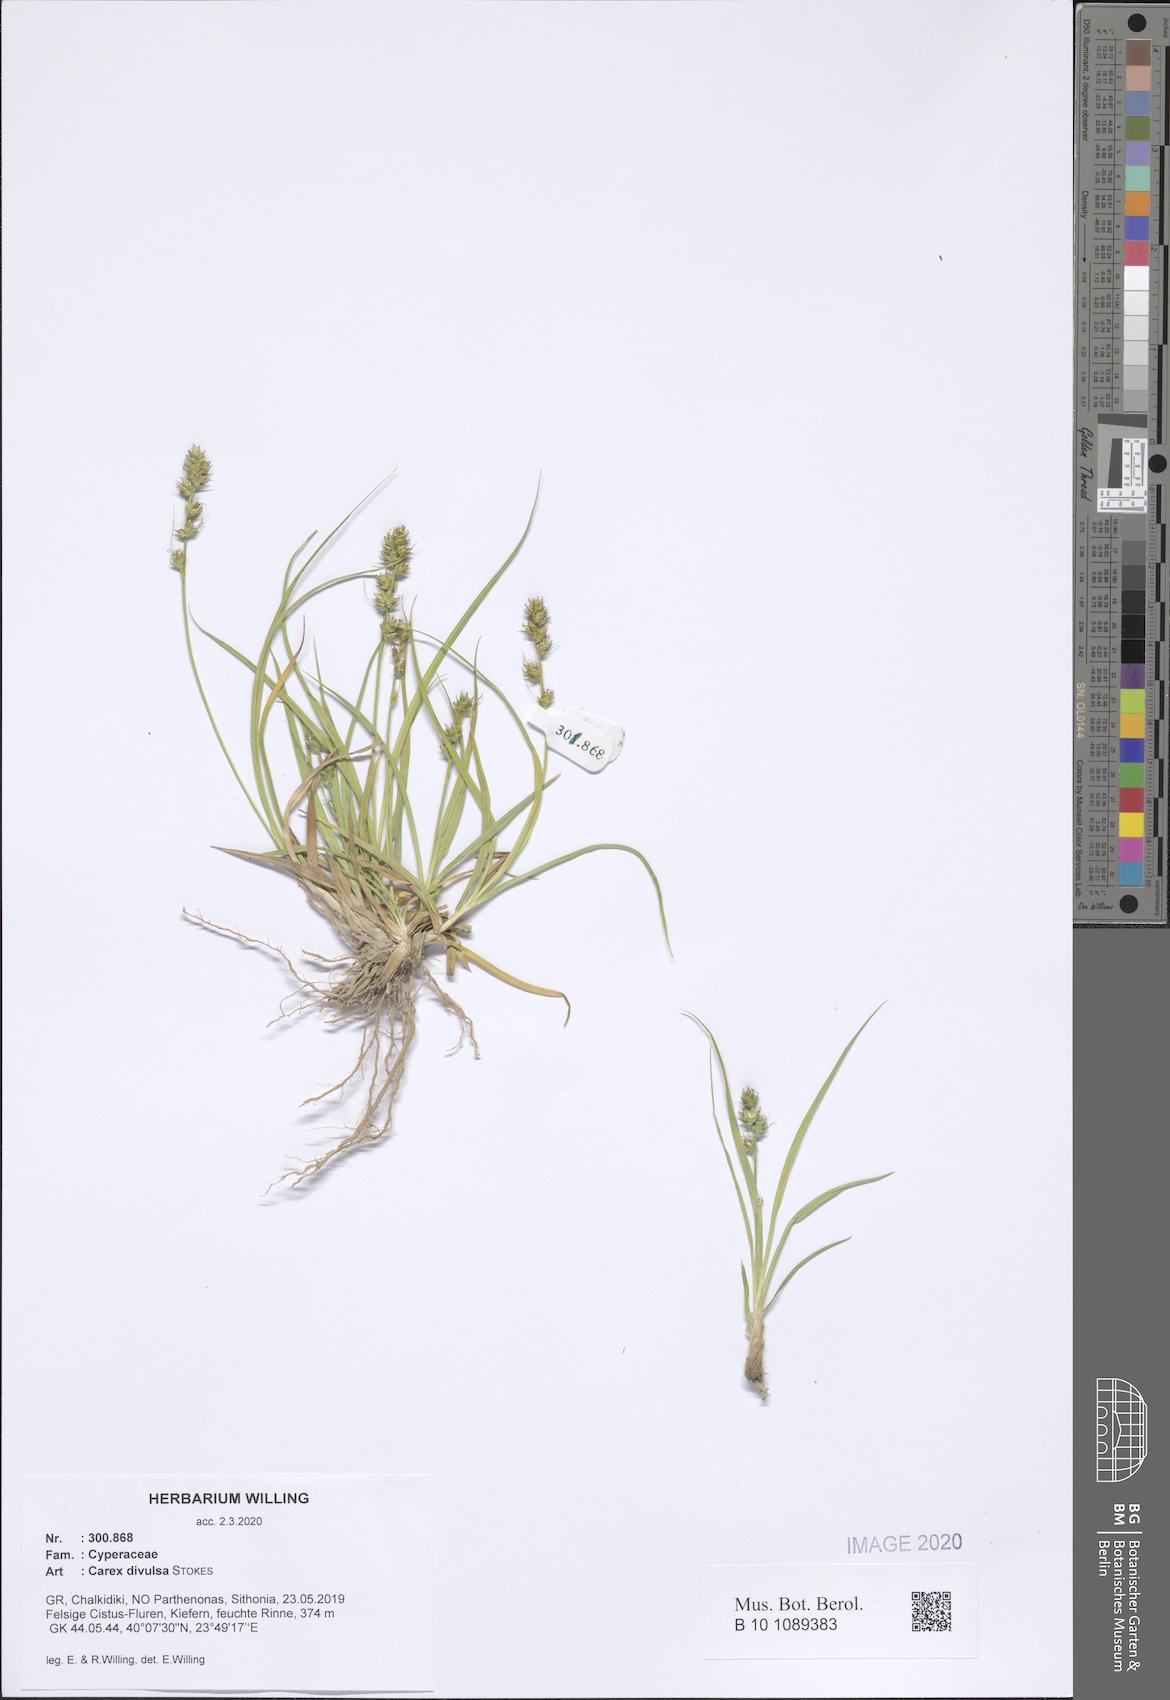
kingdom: Plantae
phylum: Tracheophyta
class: Liliopsida
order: Poales
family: Cyperaceae
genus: Carex
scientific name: Carex divulsa
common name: Grassland sedge
